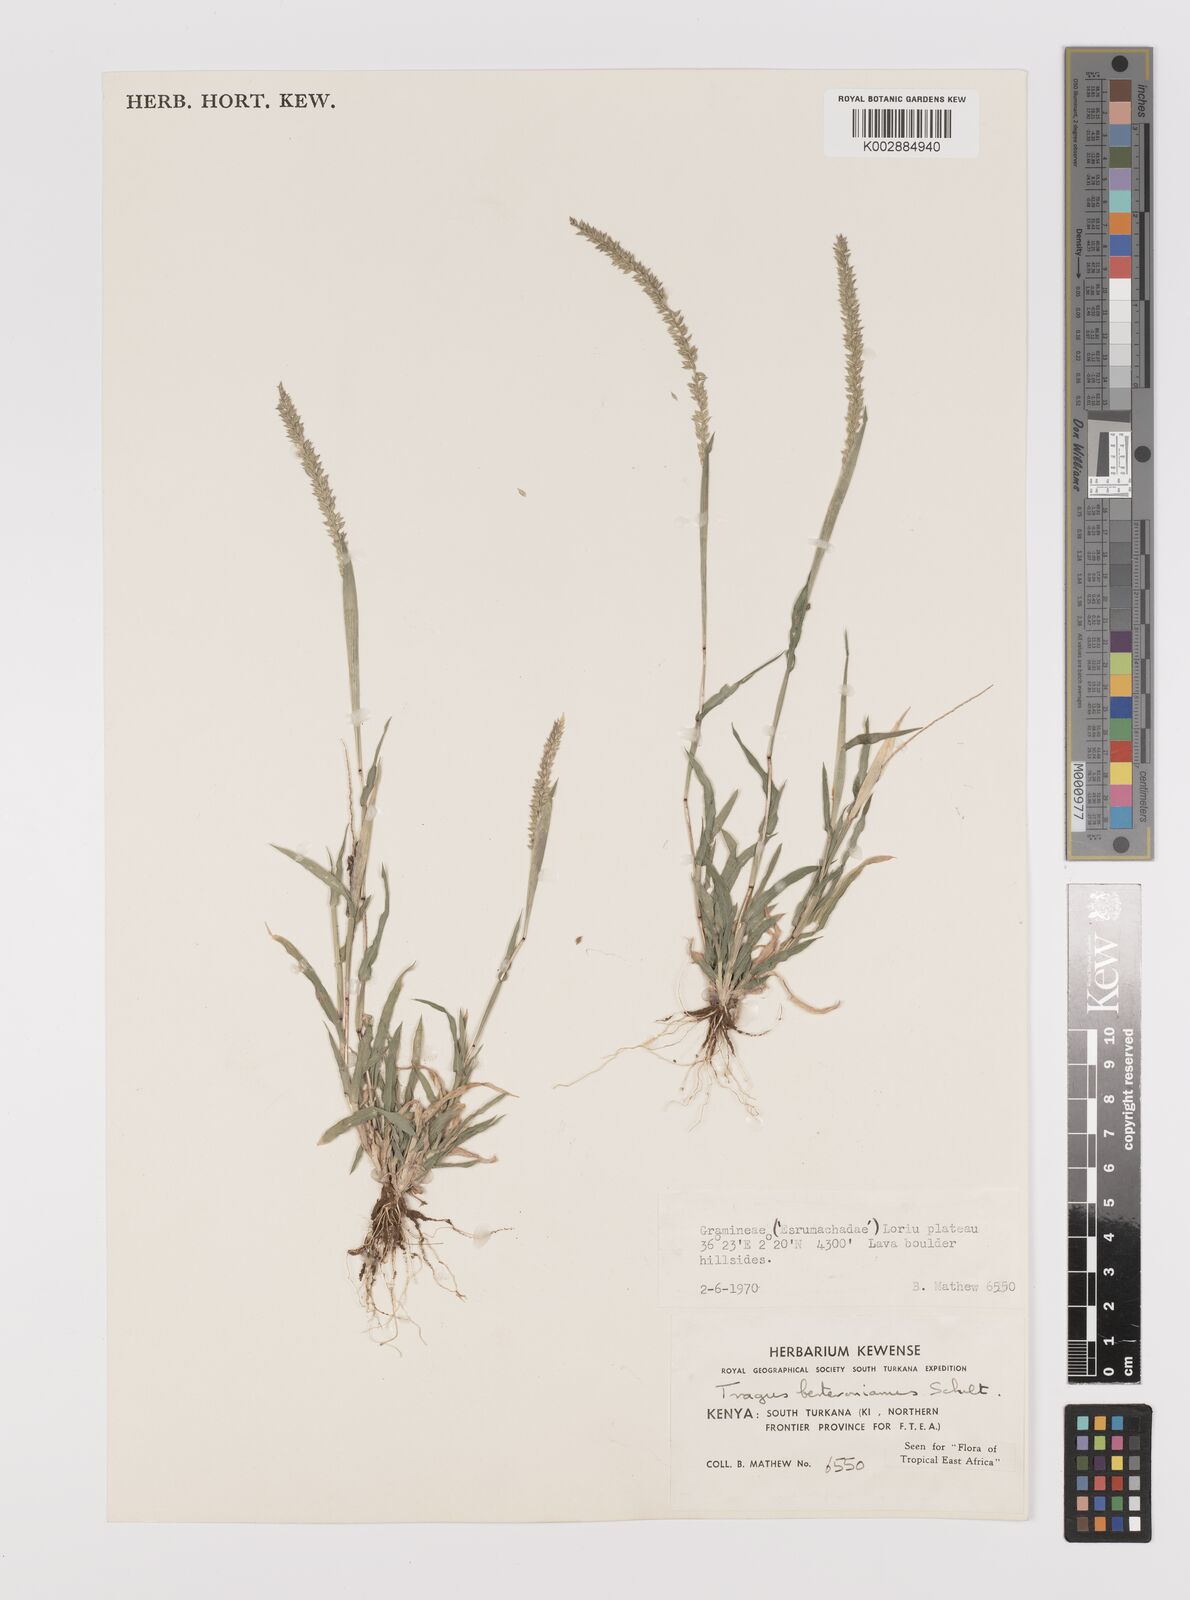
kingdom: Plantae
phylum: Tracheophyta
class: Liliopsida
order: Poales
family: Poaceae
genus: Tragus
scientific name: Tragus berteronianus
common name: African bur-grass
